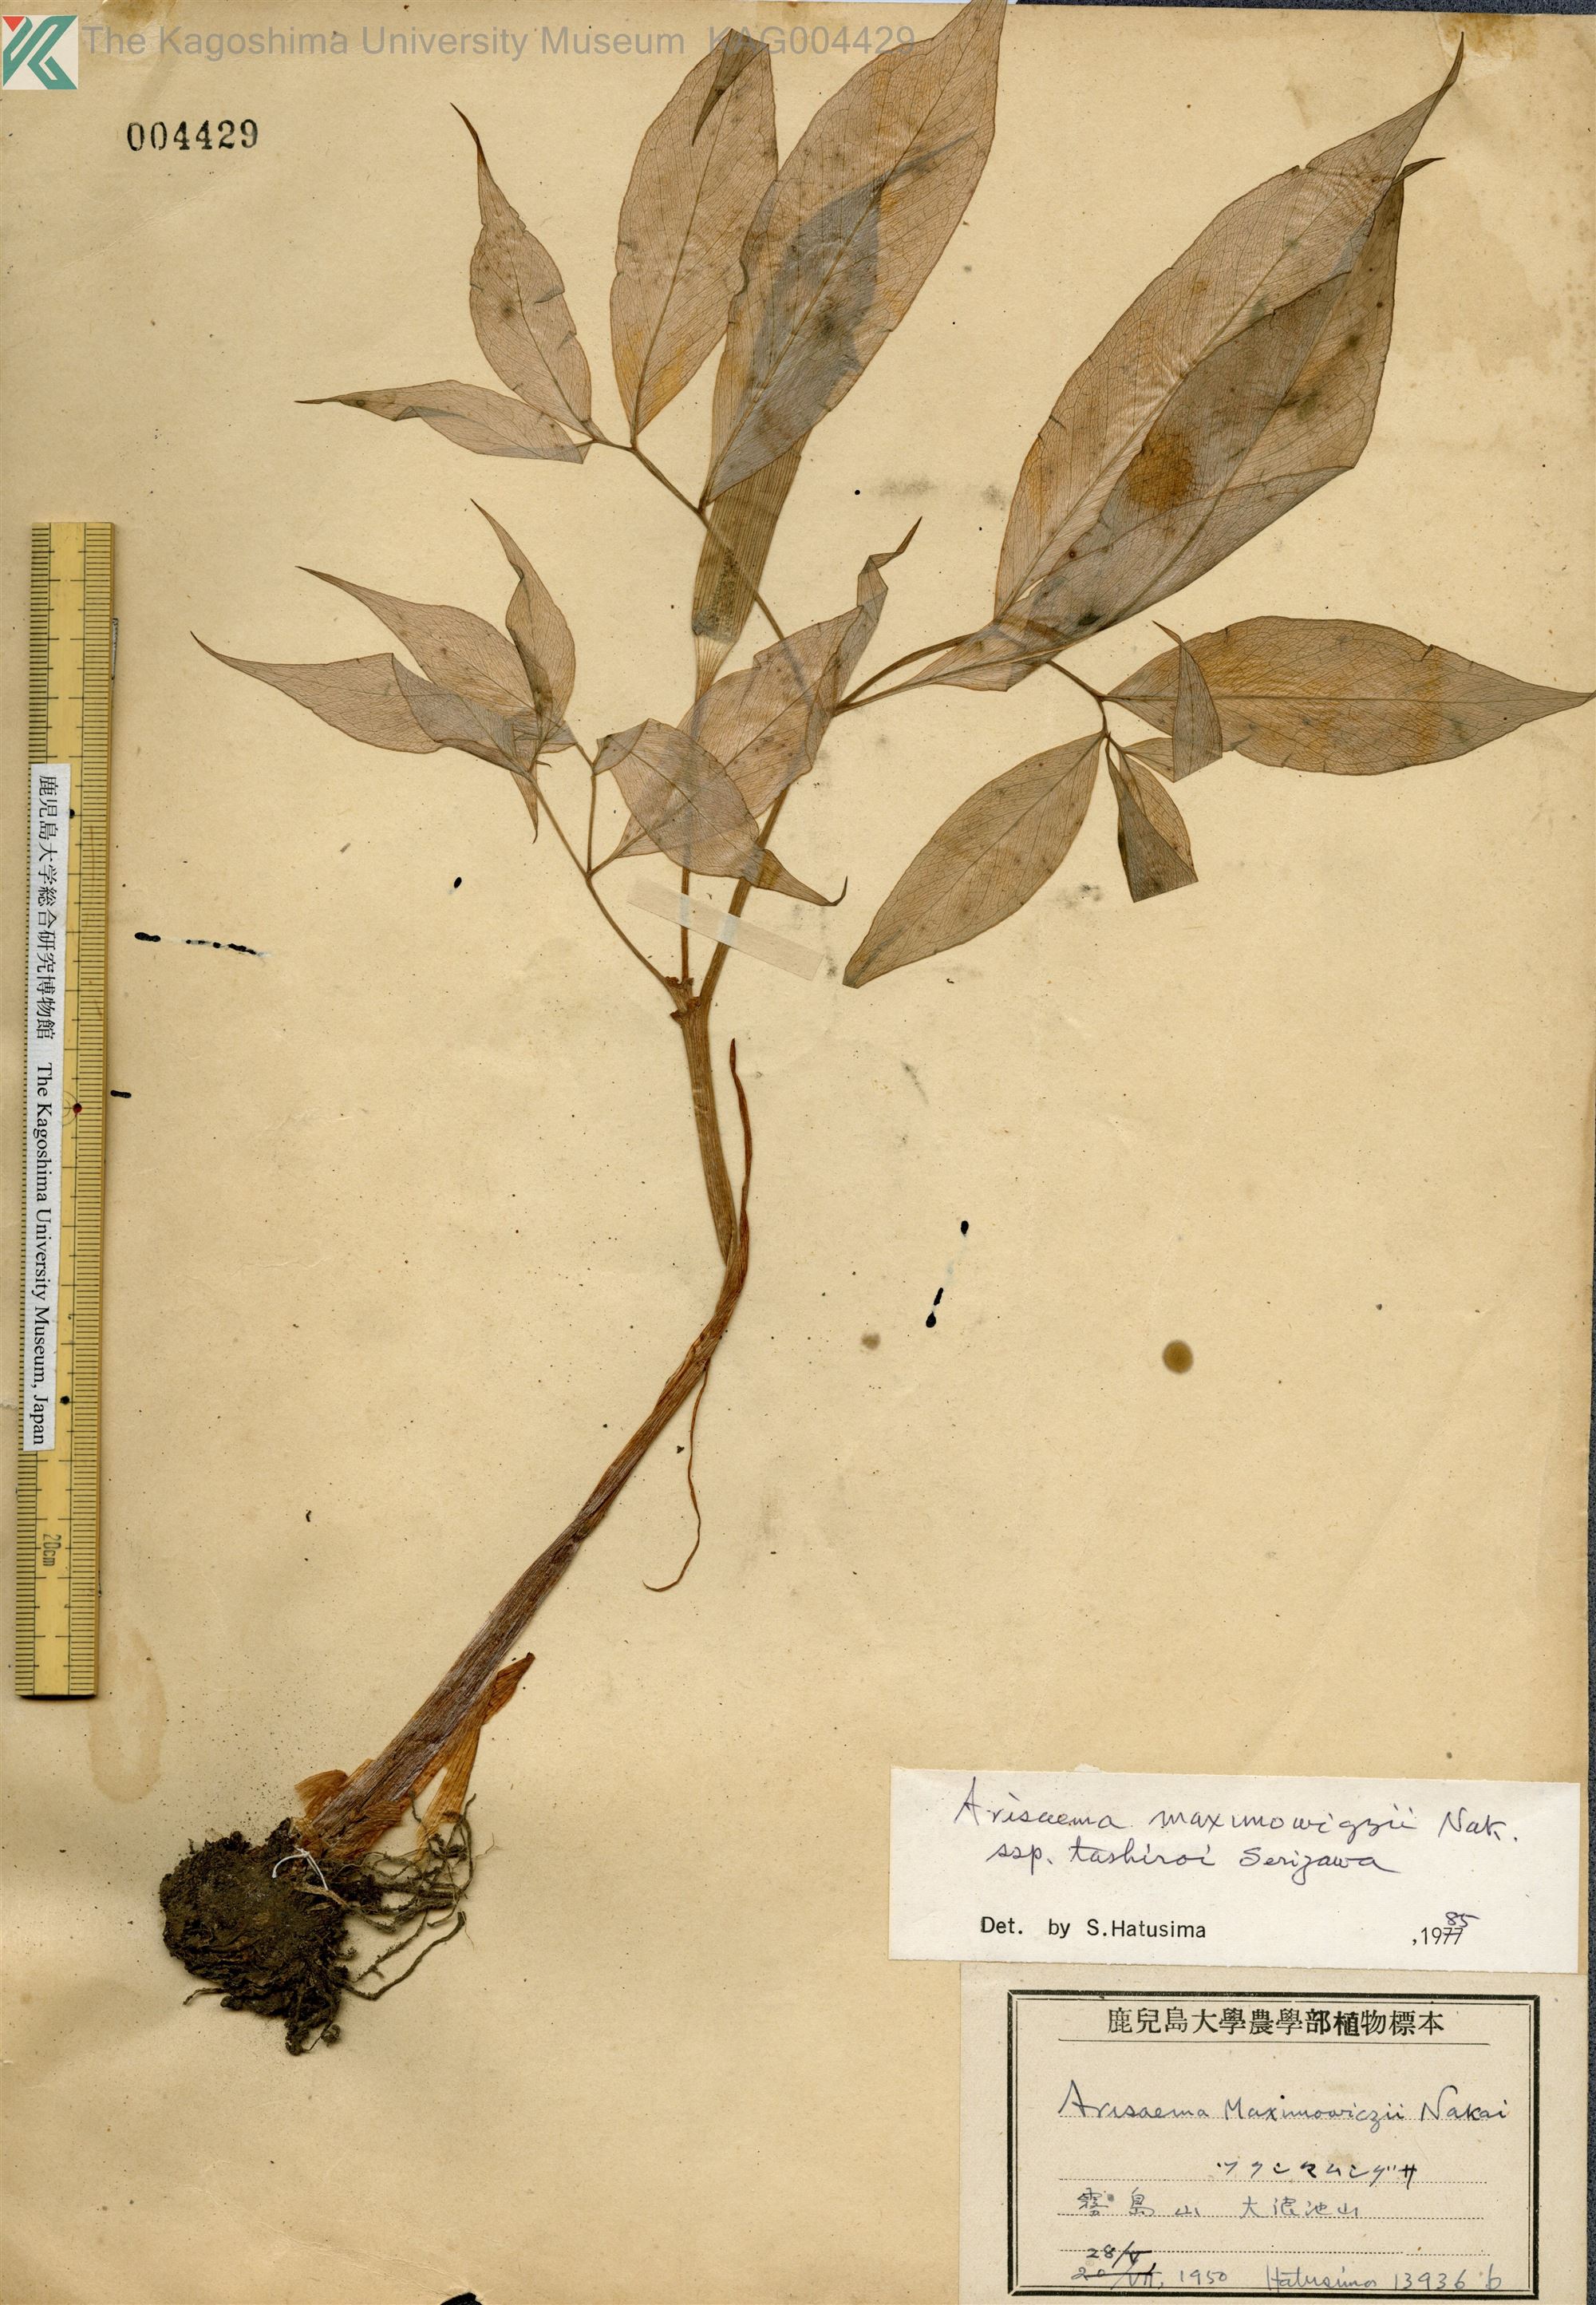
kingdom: Plantae
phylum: Tracheophyta
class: Liliopsida
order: Alismatales
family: Araceae
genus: Arisaema
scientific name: Arisaema tashiroi
